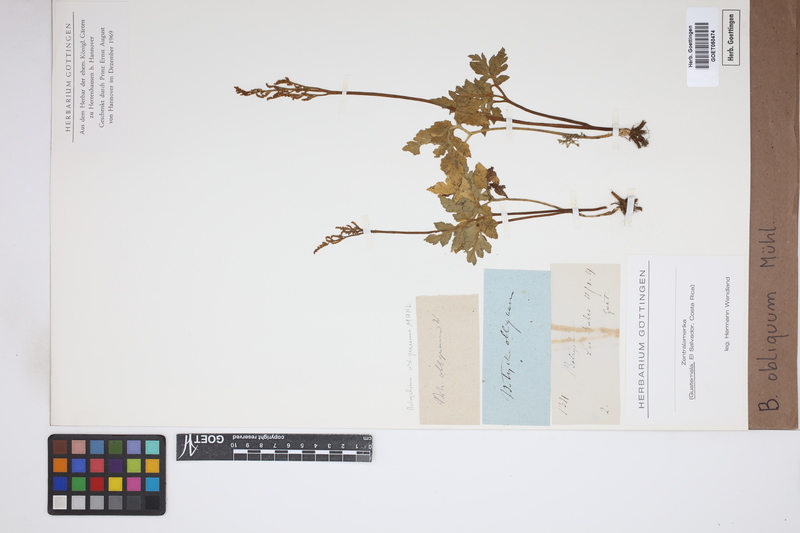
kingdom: Plantae
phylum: Tracheophyta
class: Polypodiopsida
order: Ophioglossales
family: Ophioglossaceae
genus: Sceptridium
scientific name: Sceptridium dissectum
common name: Cut-leaved grapefern
